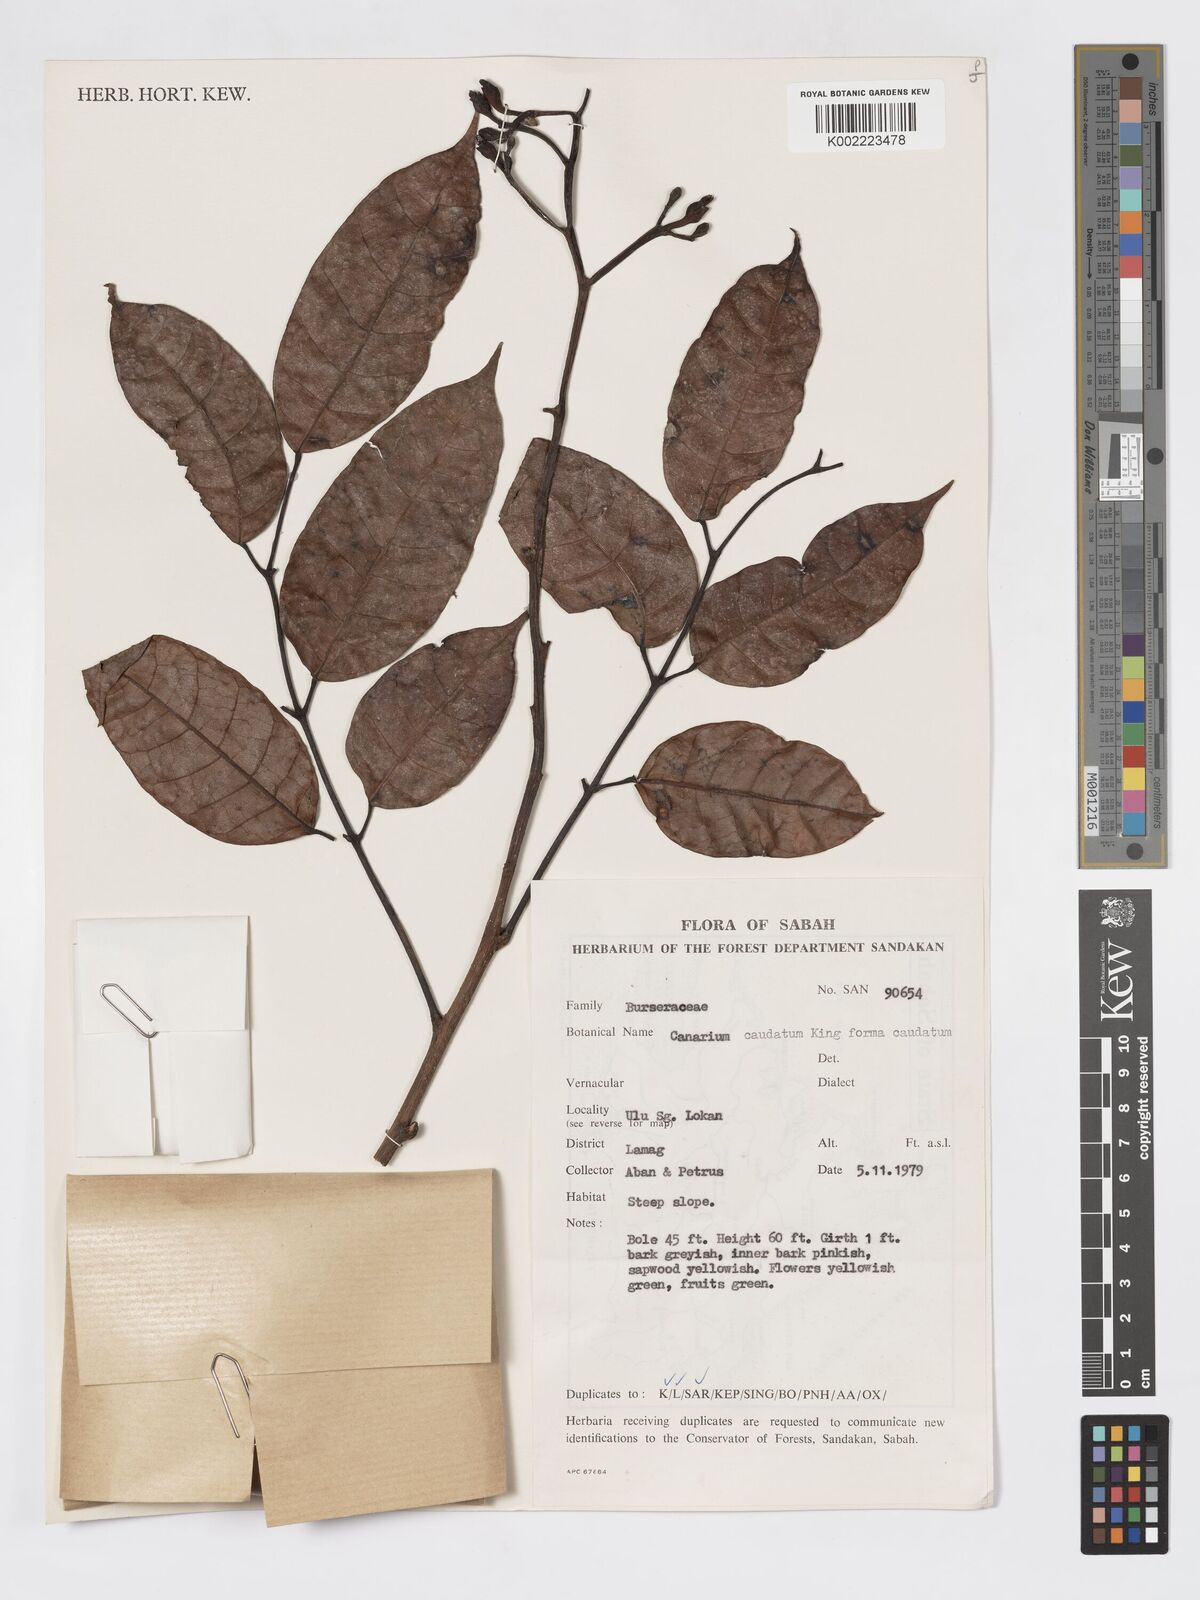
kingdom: Plantae
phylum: Tracheophyta
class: Magnoliopsida
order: Sapindales
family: Burseraceae
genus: Canarium
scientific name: Canarium caudatum
